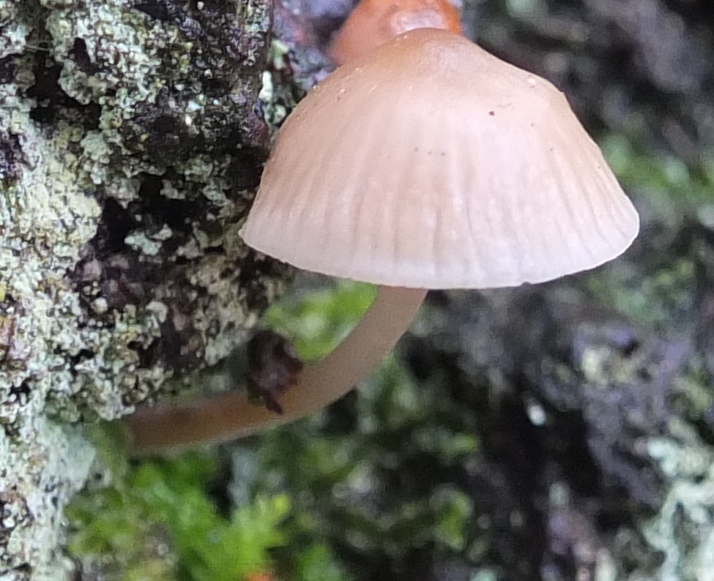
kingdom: Fungi
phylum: Basidiomycota
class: Agaricomycetes
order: Agaricales
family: Mycenaceae
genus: Mycena
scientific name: Mycena erubescens
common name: galde-huesvamp
